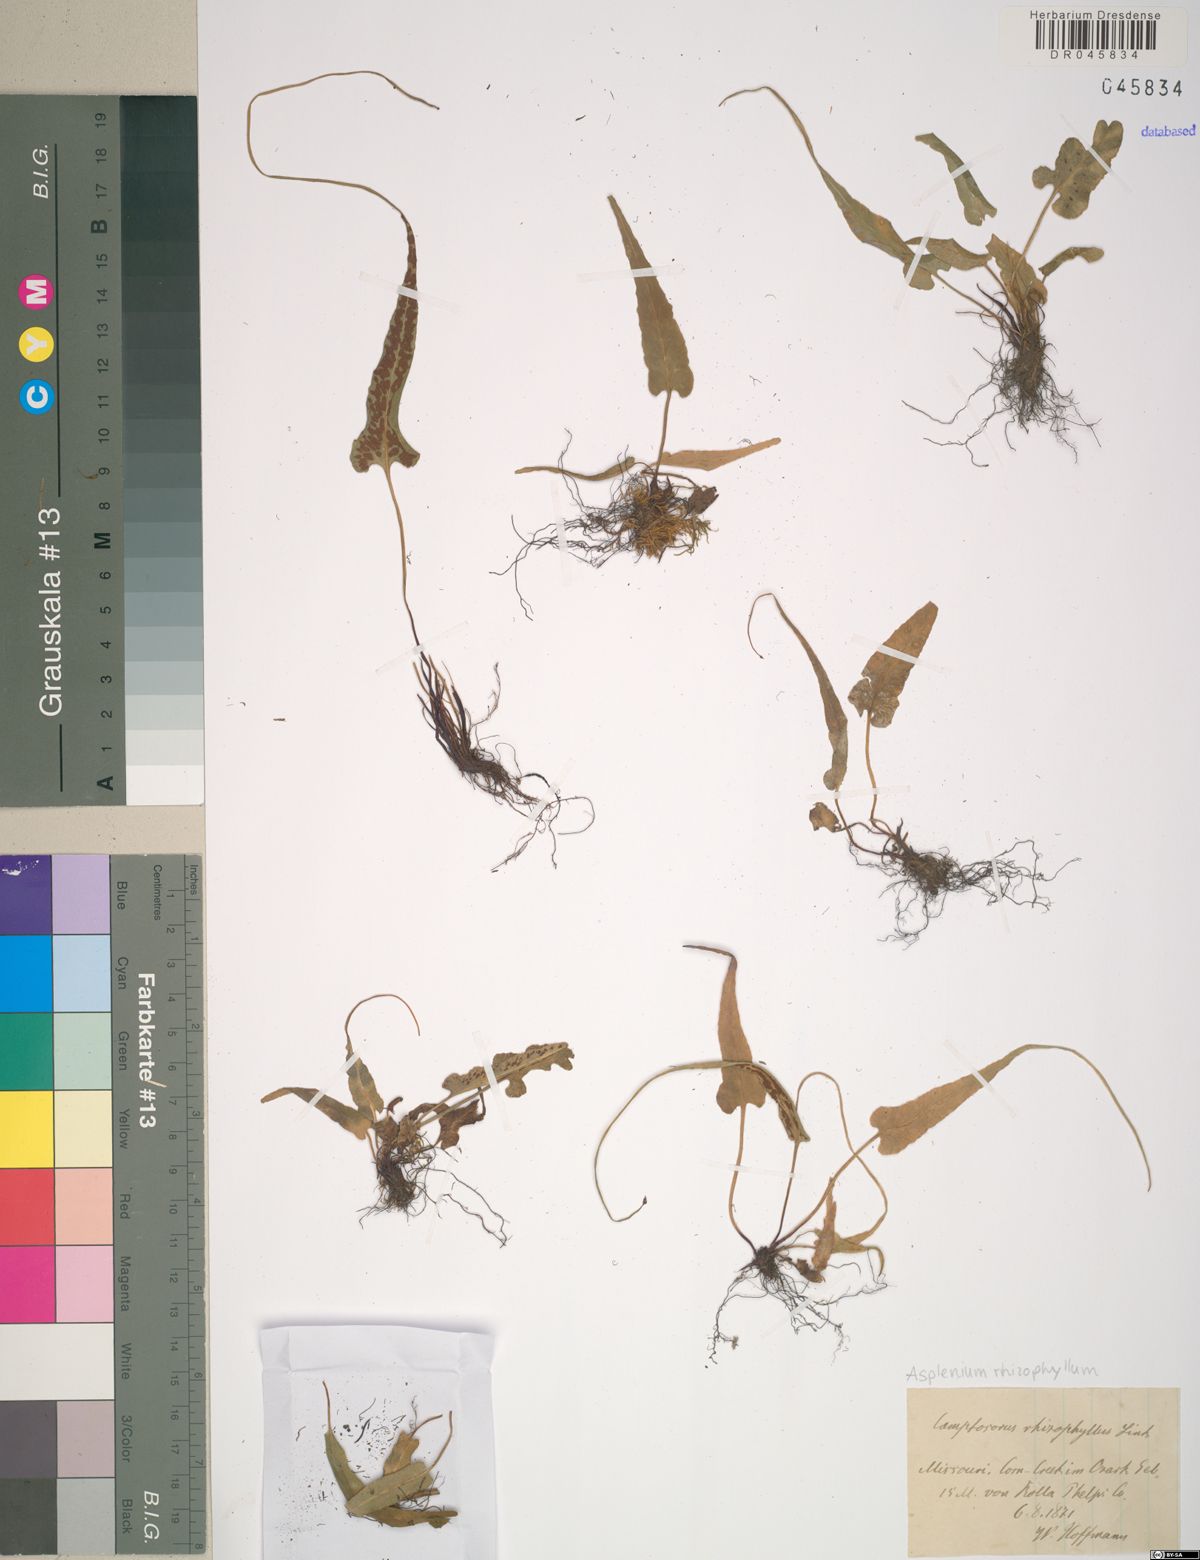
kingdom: Plantae
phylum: Tracheophyta
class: Polypodiopsida
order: Polypodiales
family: Aspleniaceae
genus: Asplenium
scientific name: Asplenium rhizophyllum
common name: Walking fern
